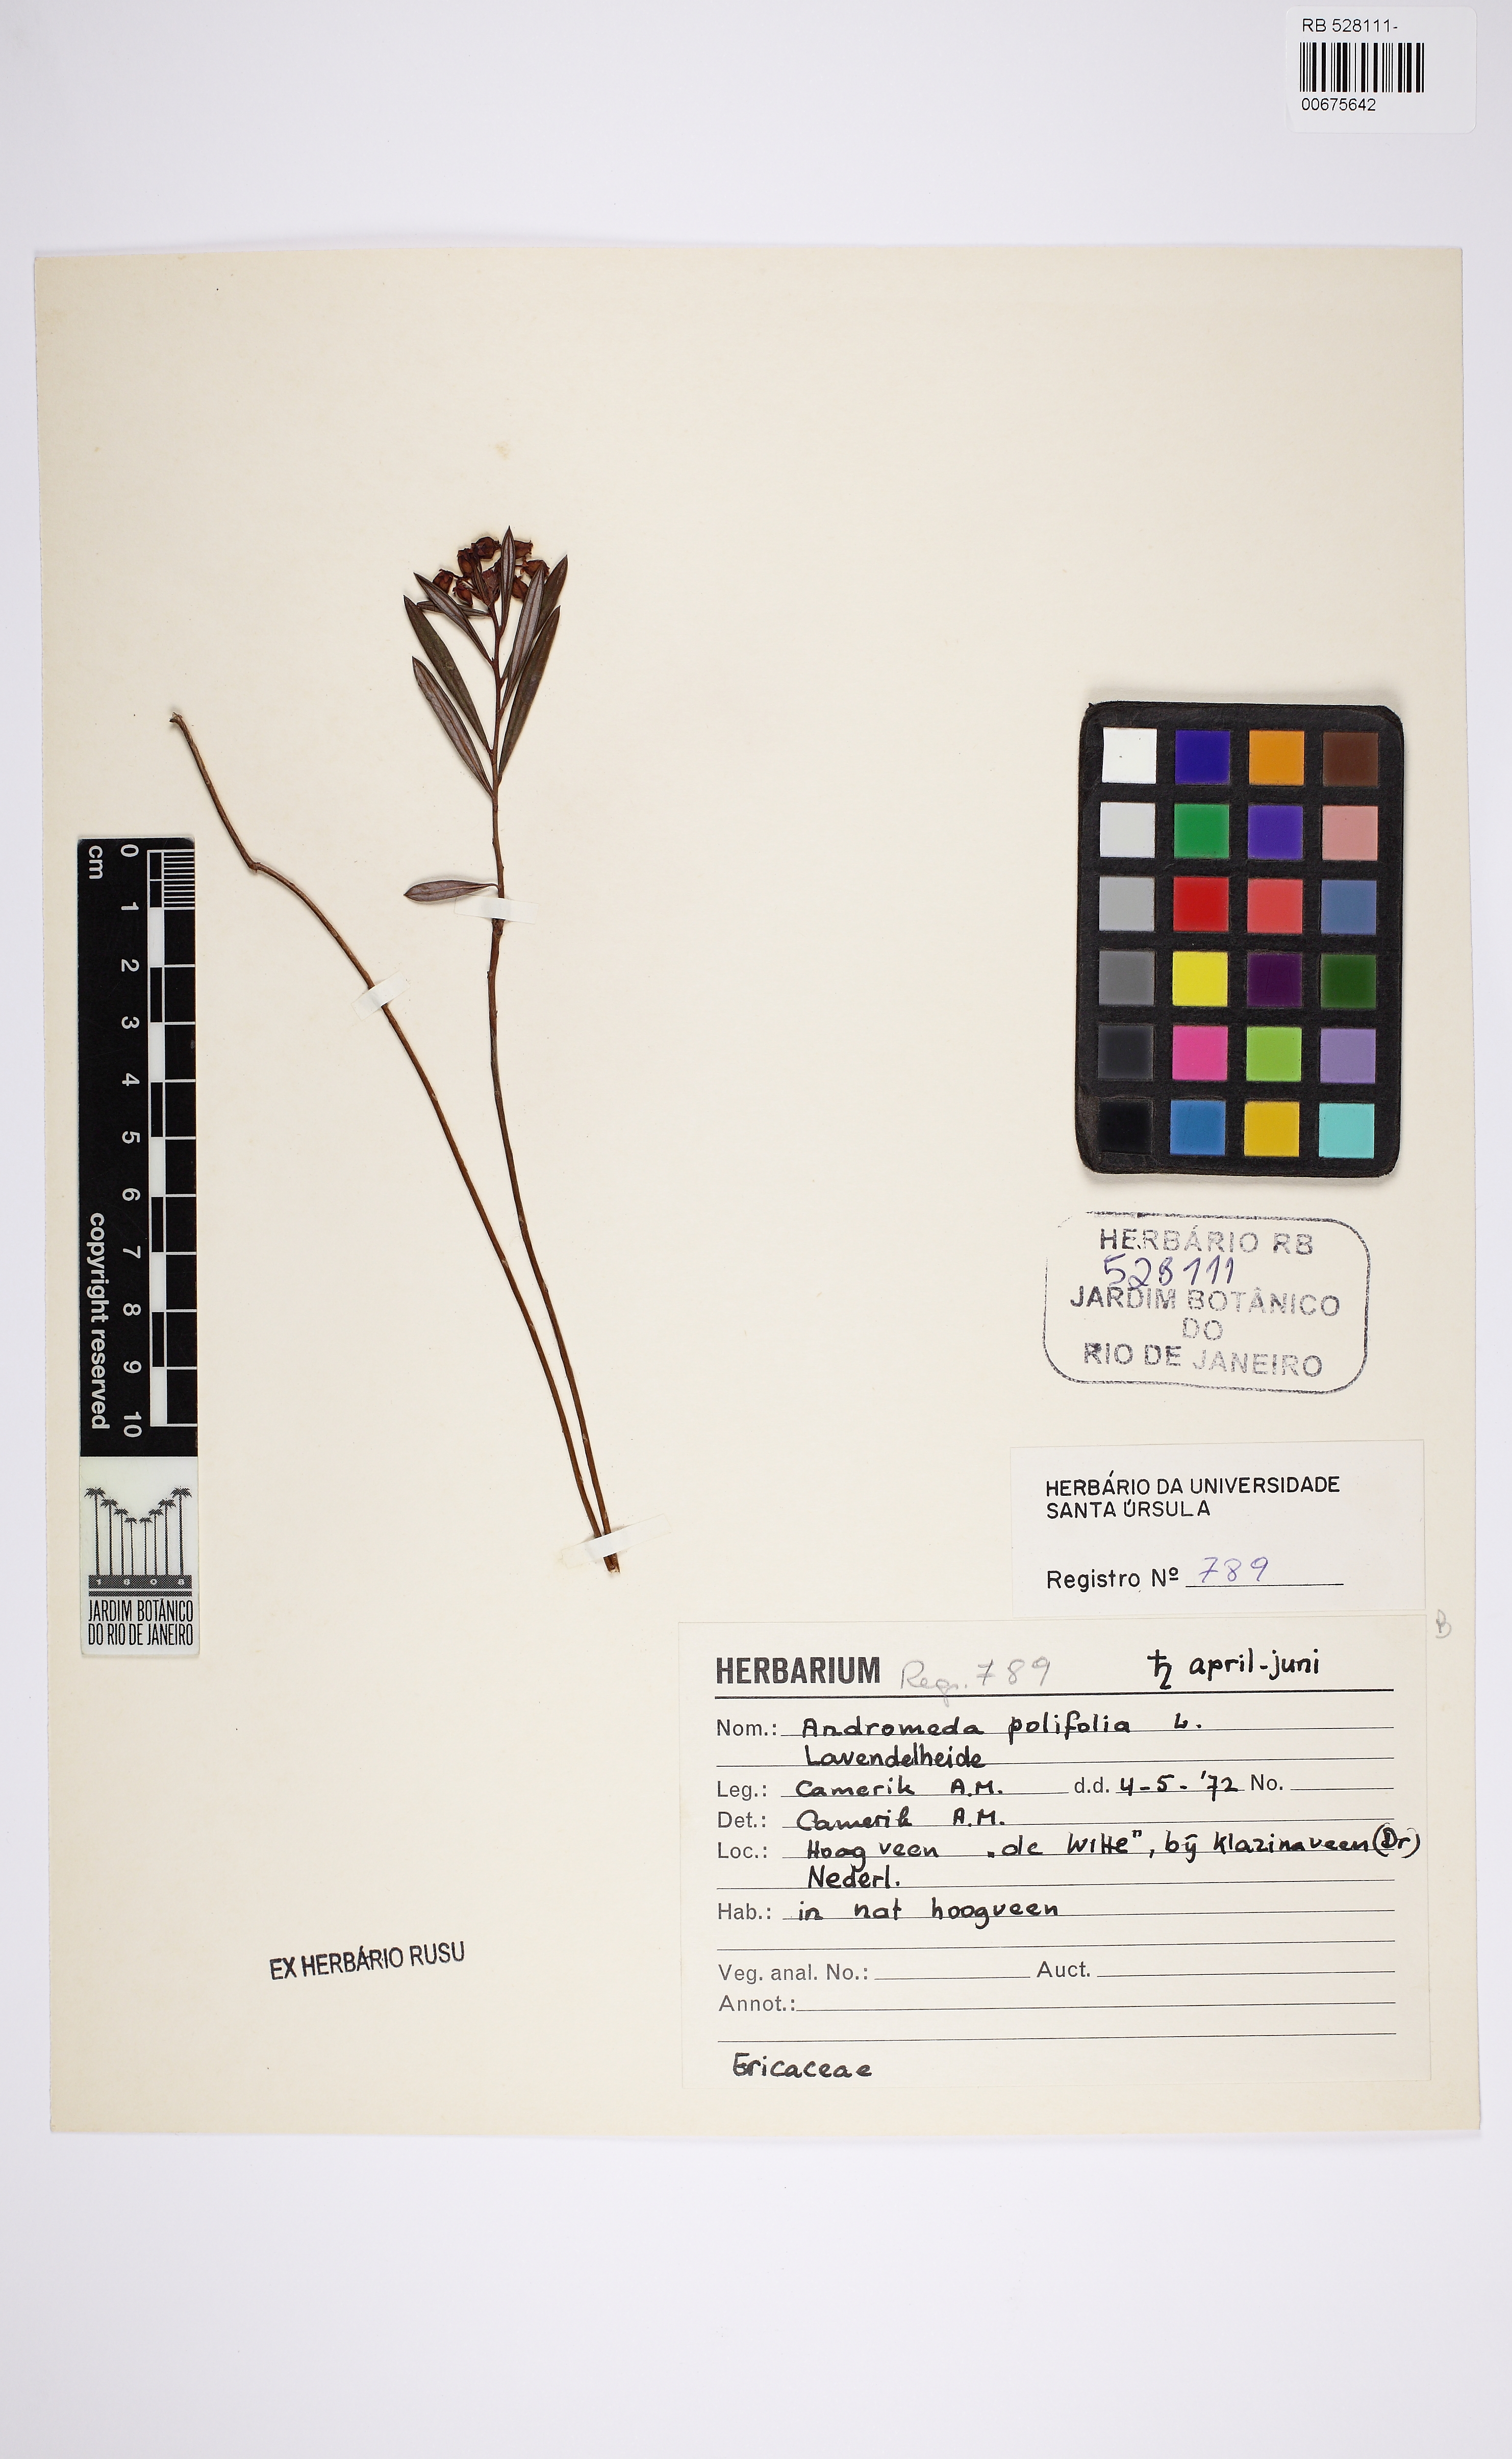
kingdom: Plantae
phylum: Tracheophyta
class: Magnoliopsida
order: Ericales
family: Ericaceae
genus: Andromeda
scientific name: Andromeda polifolia
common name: Bog-rosemary
